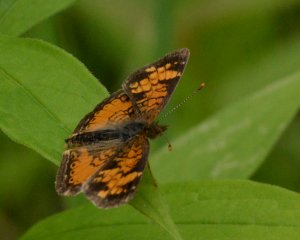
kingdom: Animalia
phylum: Arthropoda
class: Insecta
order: Lepidoptera
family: Nymphalidae
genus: Phyciodes
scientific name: Phyciodes tharos
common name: Northern Crescent
